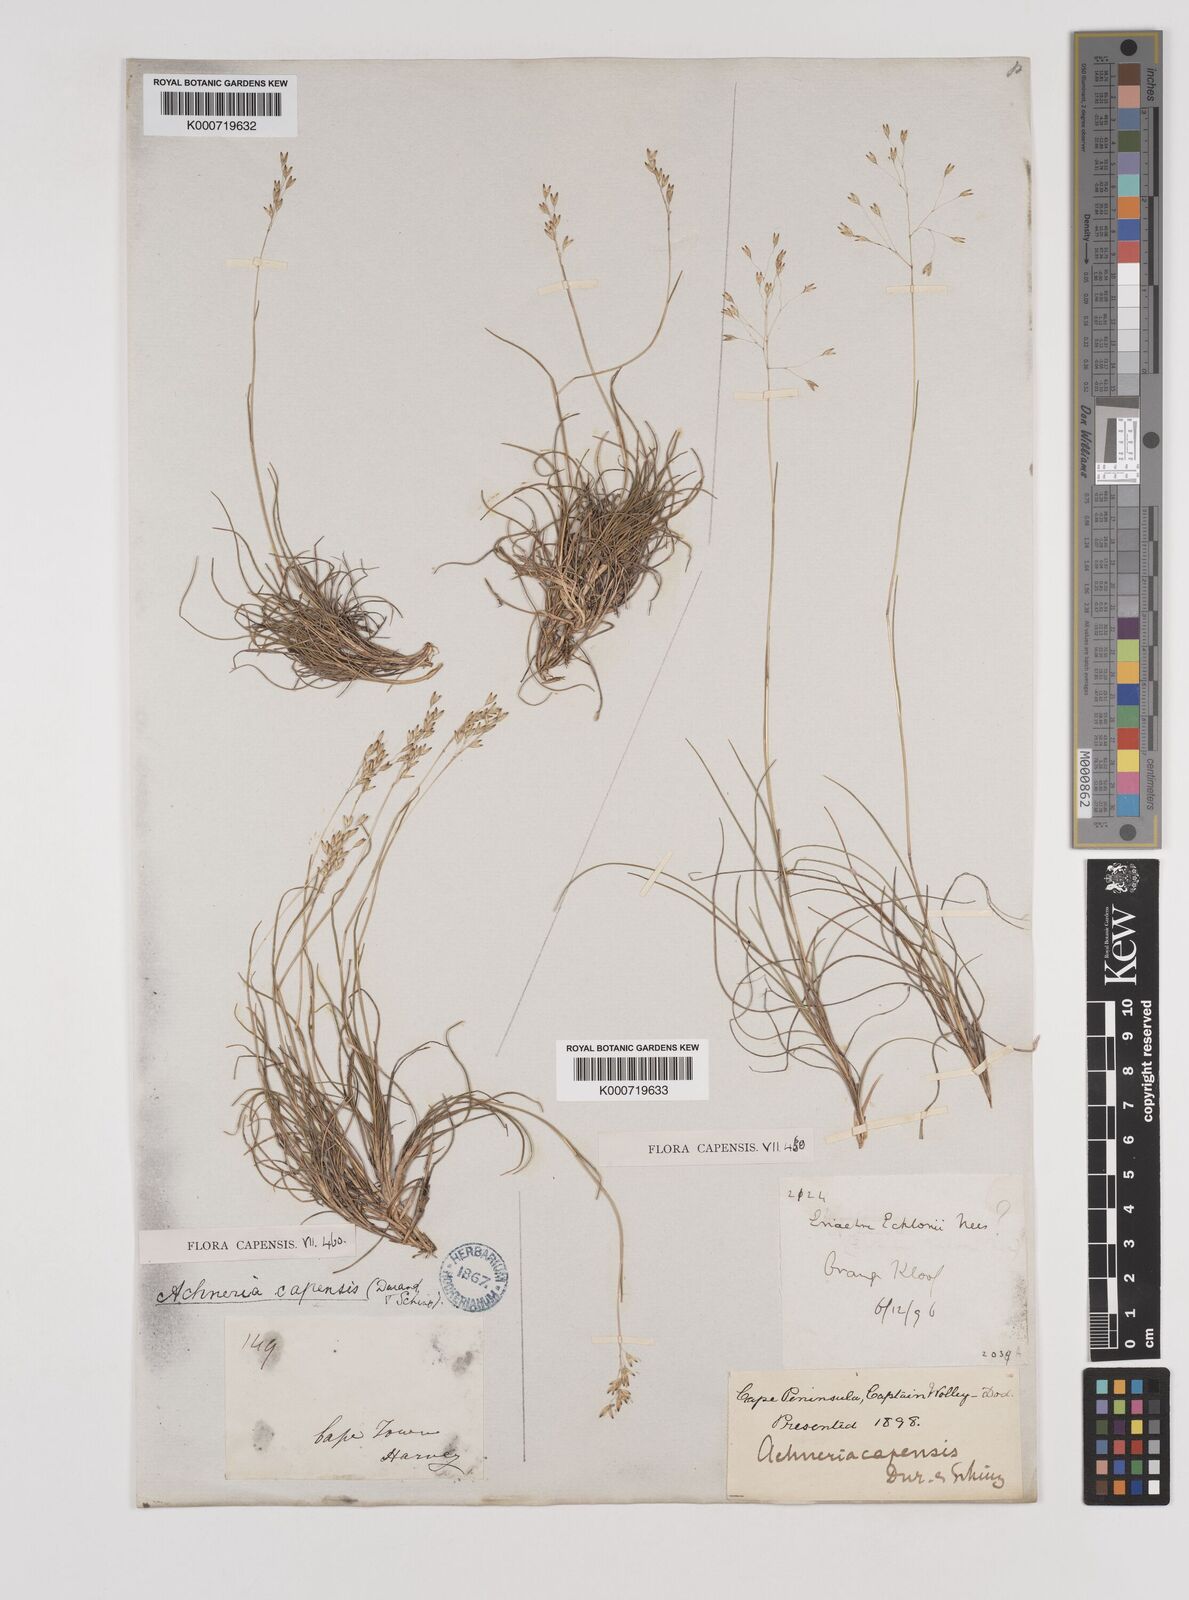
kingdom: Plantae
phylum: Tracheophyta
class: Liliopsida
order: Poales
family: Poaceae
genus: Pentameris
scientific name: Pentameris malouinensis
